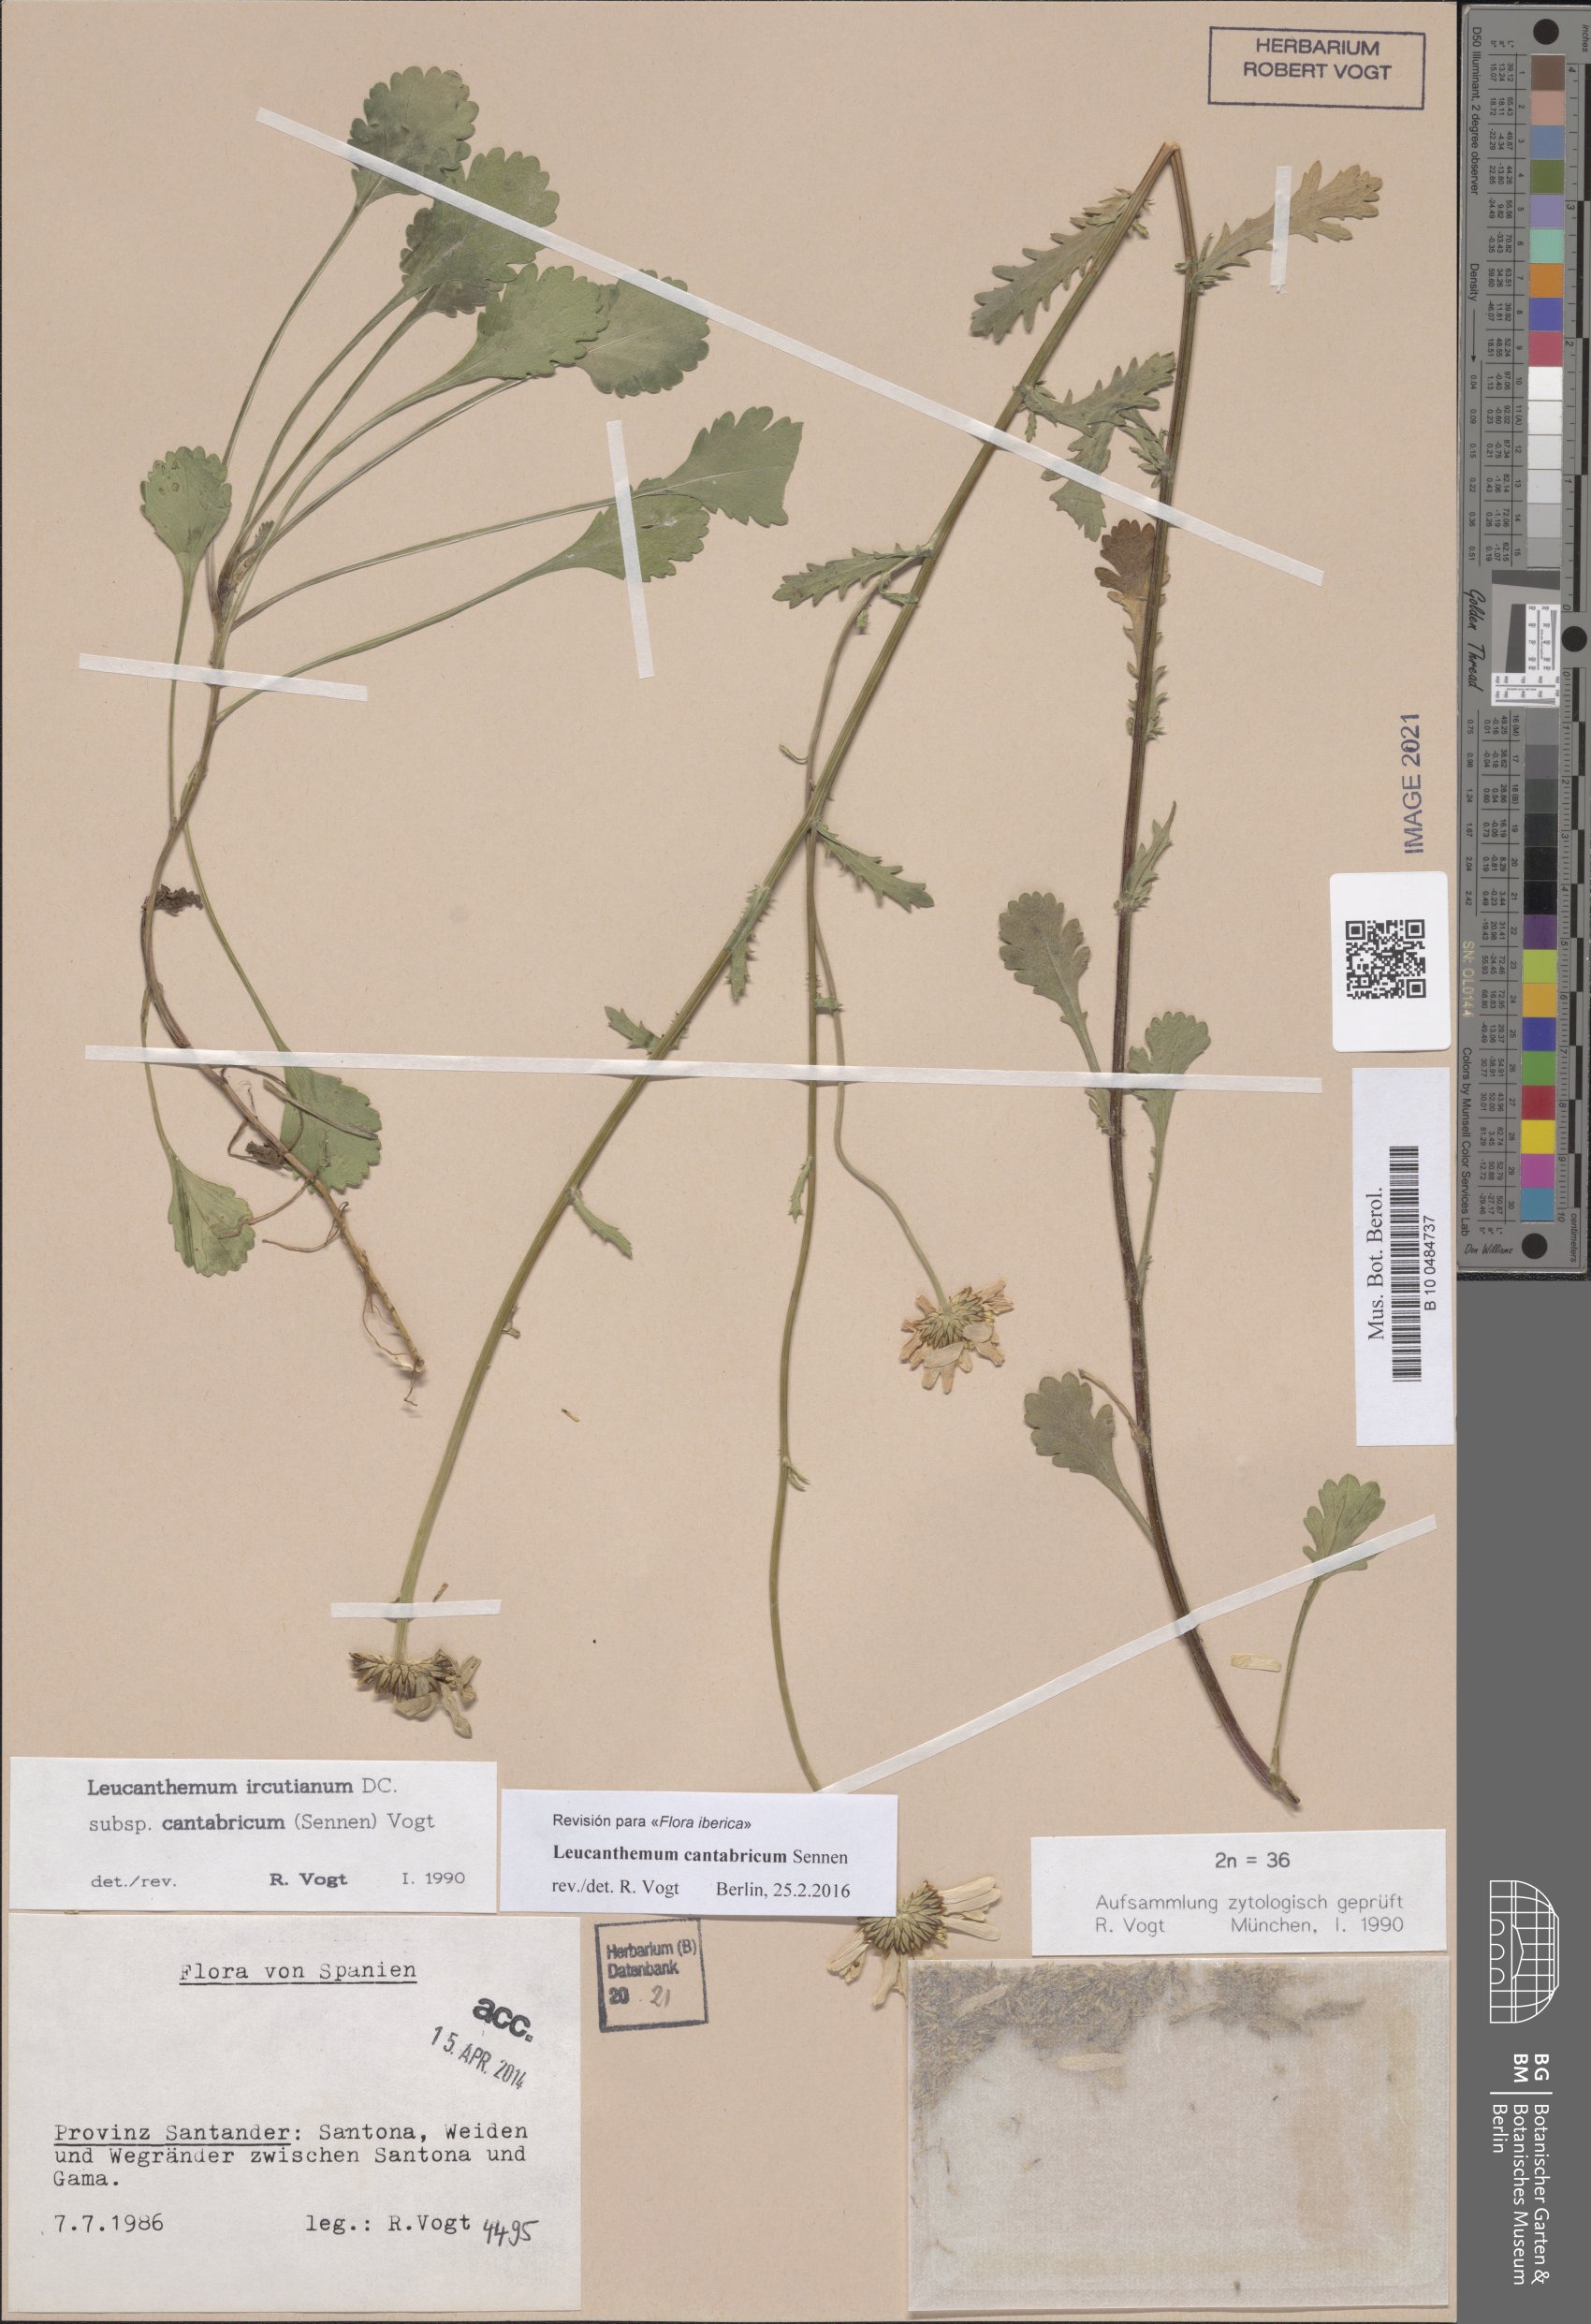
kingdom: Plantae
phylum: Tracheophyta
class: Magnoliopsida
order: Asterales
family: Asteraceae
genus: Leucanthemum
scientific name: Leucanthemum cantabricum
